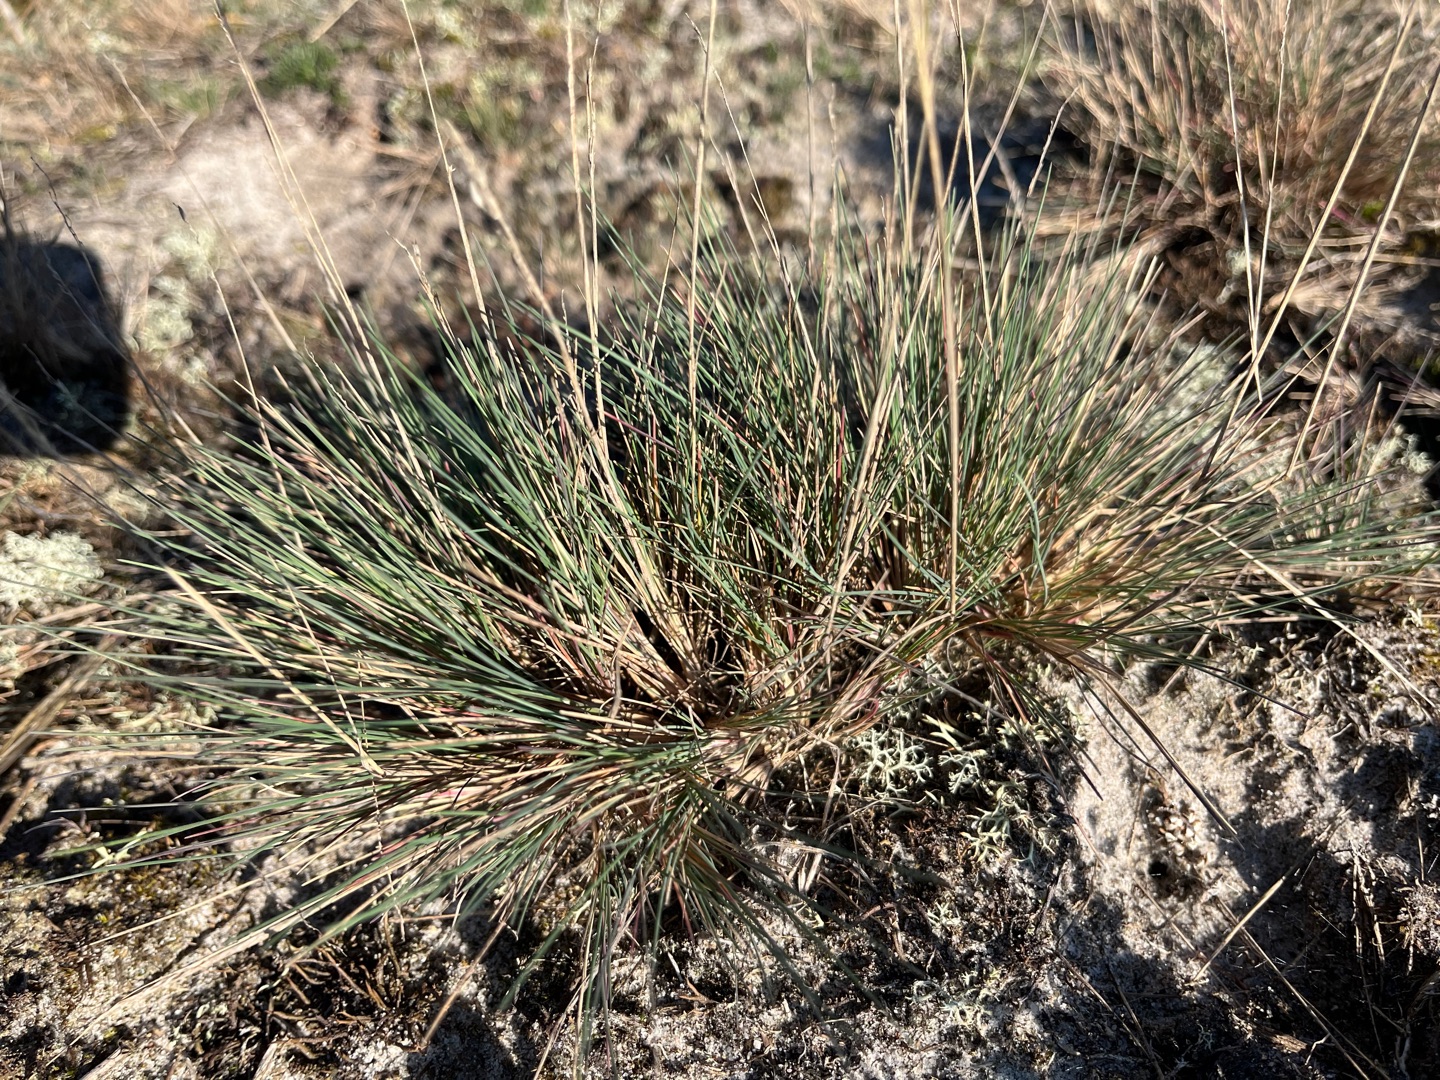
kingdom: Plantae
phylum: Tracheophyta
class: Liliopsida
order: Poales
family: Poaceae
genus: Corynephorus
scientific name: Corynephorus canescens
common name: Sandskæg
